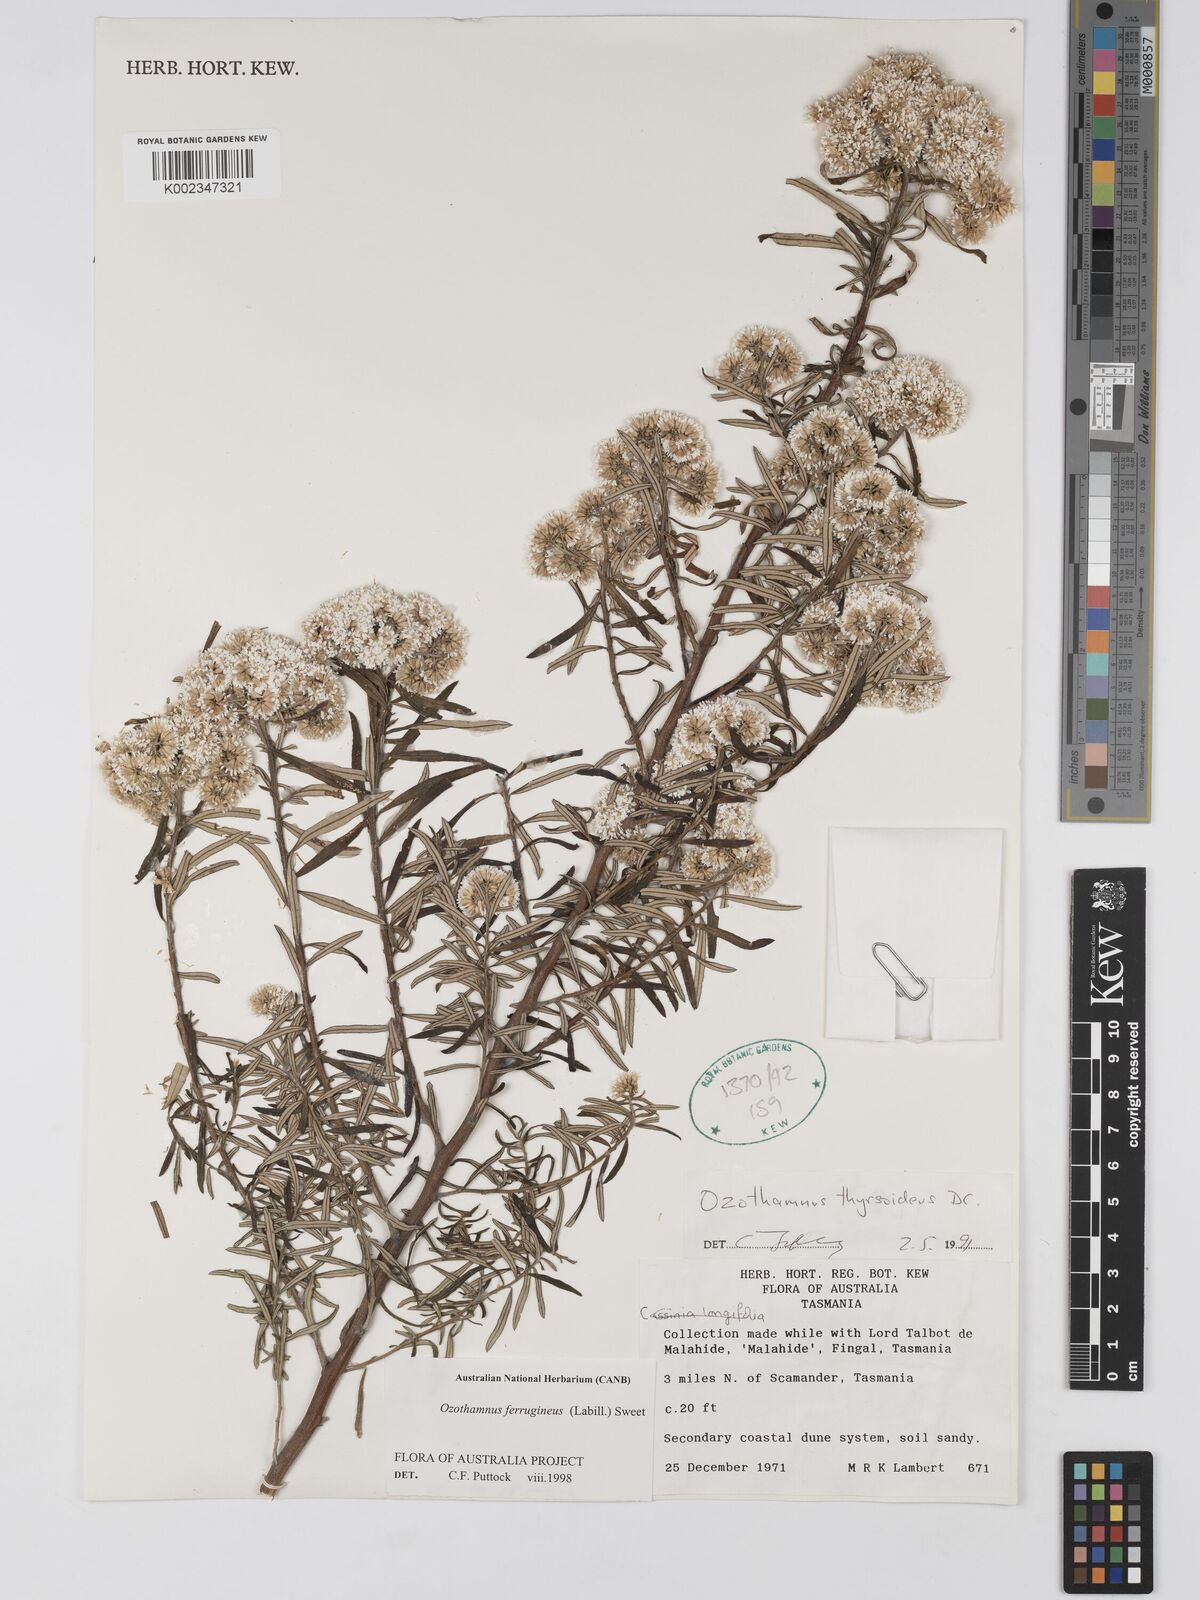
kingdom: Plantae
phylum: Tracheophyta
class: Magnoliopsida
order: Asterales
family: Asteraceae
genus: Ozothamnus
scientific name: Ozothamnus ferrugineus
